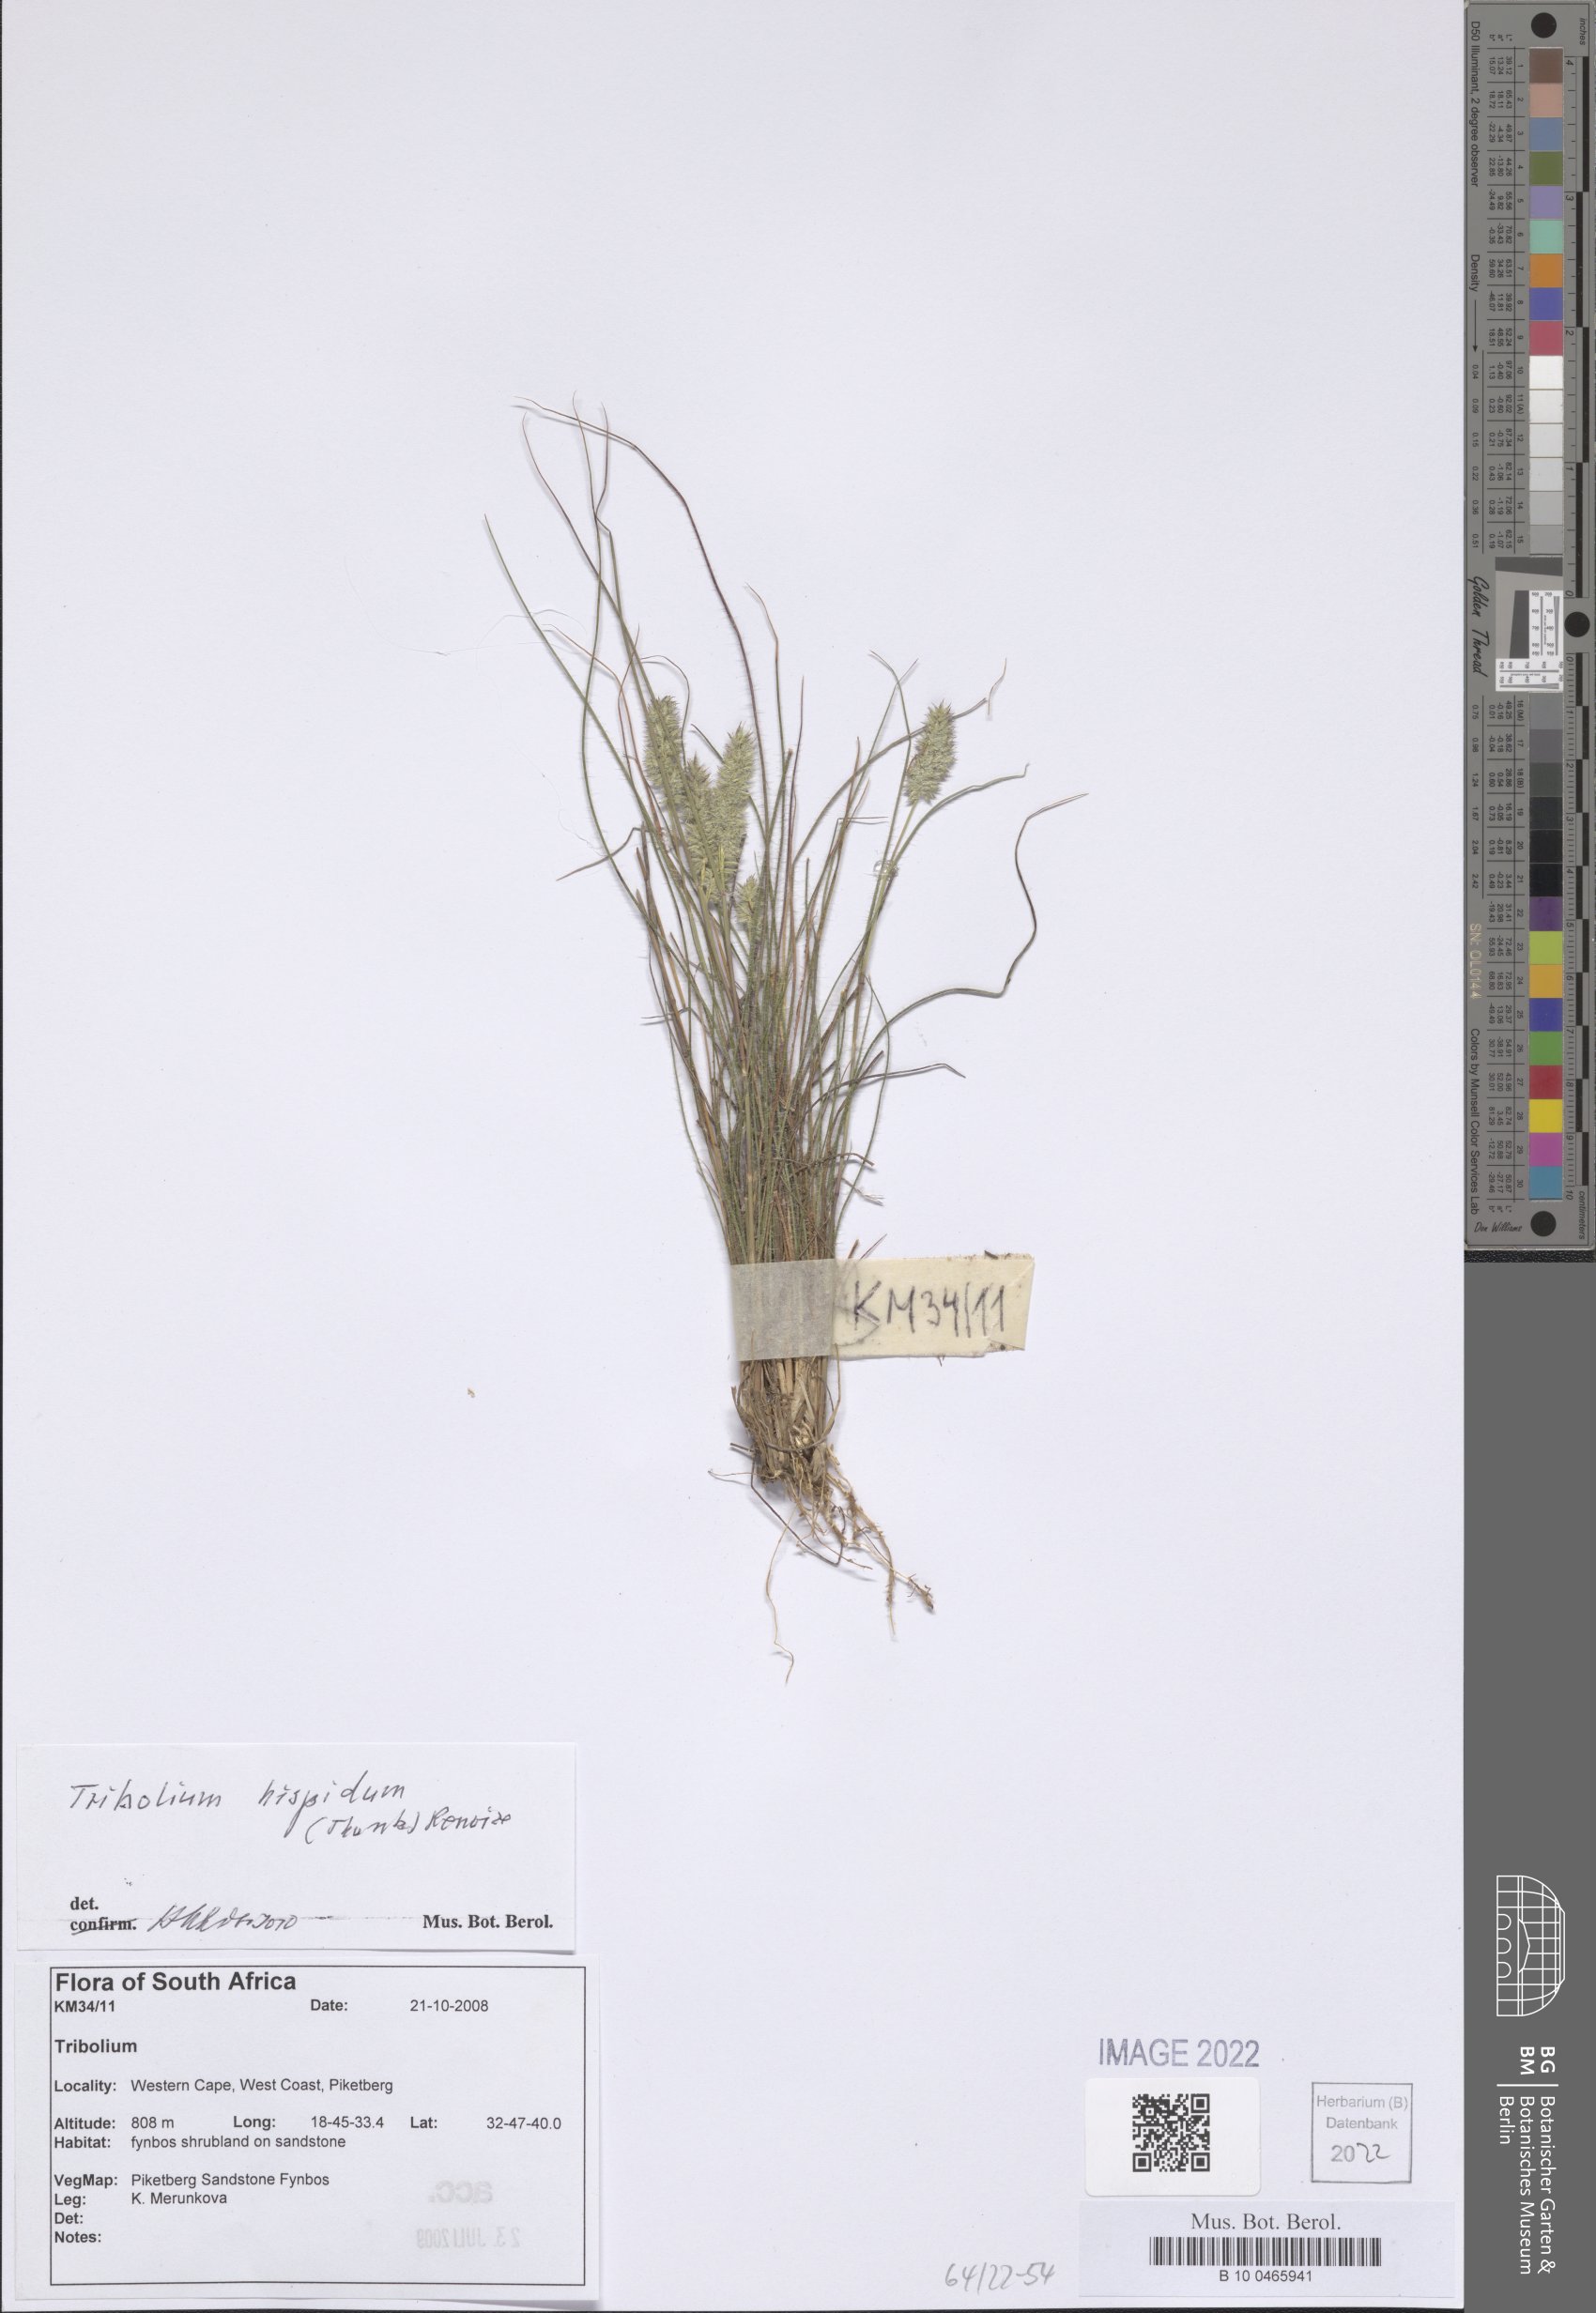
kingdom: Plantae
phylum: Tracheophyta
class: Liliopsida
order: Poales
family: Poaceae
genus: Tribolium
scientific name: Tribolium hispidum
